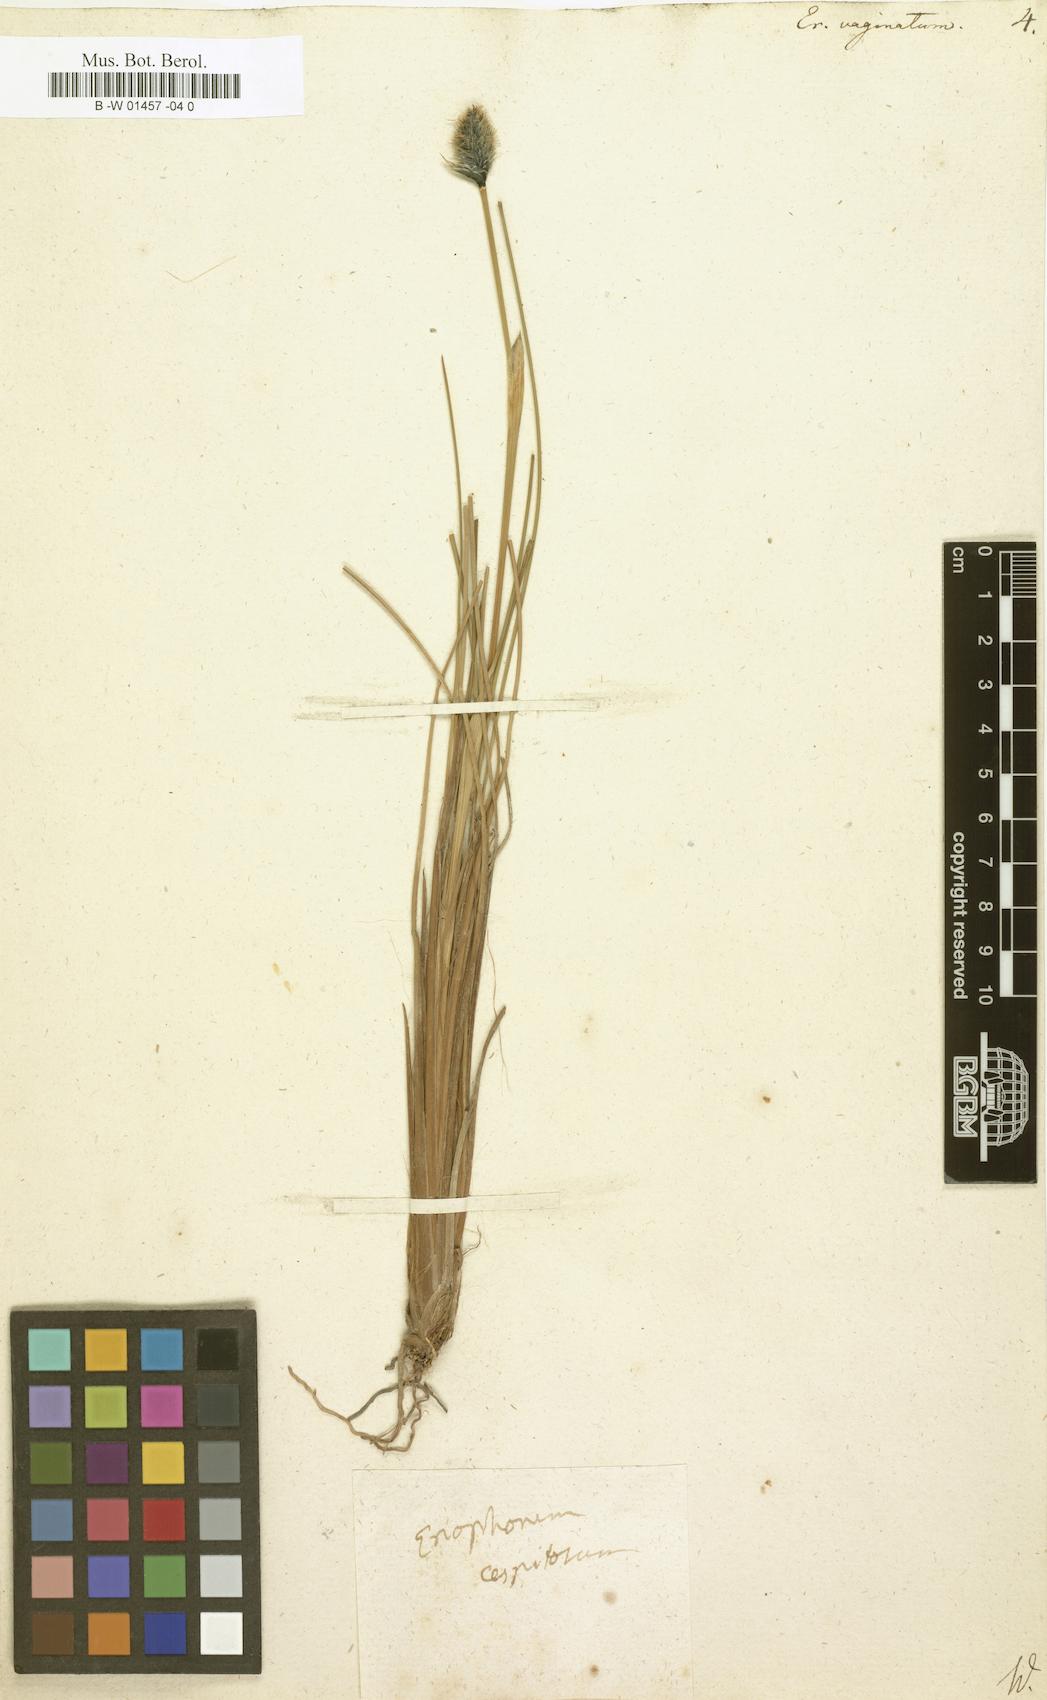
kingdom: Plantae
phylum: Tracheophyta
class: Liliopsida
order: Poales
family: Cyperaceae
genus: Eriophorum
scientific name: Eriophorum vaginatum
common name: Hare's-tail cottongrass
